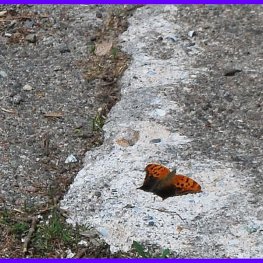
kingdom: Animalia
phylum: Arthropoda
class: Insecta
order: Lepidoptera
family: Nymphalidae
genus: Polygonia
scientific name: Polygonia interrogationis
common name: Question Mark
